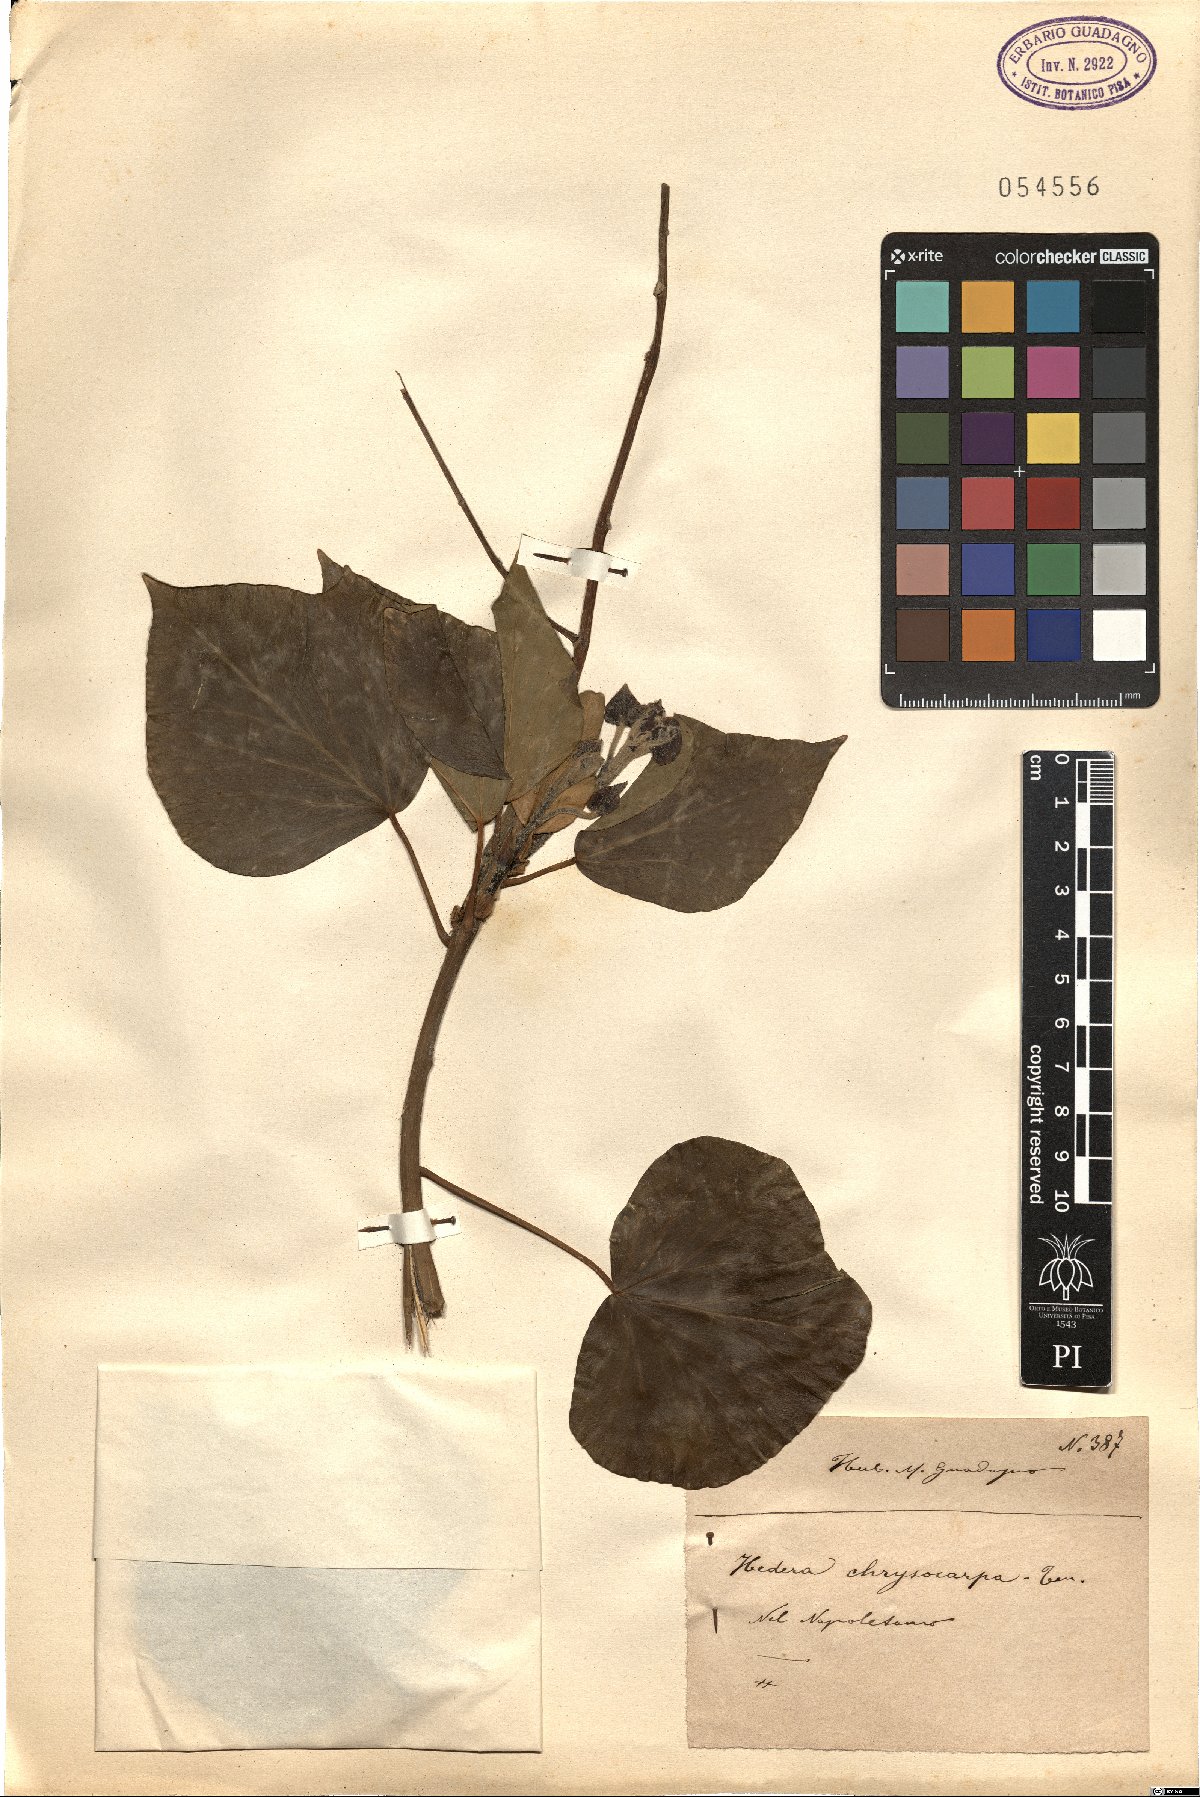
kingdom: Plantae
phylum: Tracheophyta
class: Magnoliopsida
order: Apiales
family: Araliaceae
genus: Hedera
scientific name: Hedera helix
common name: Ivy
